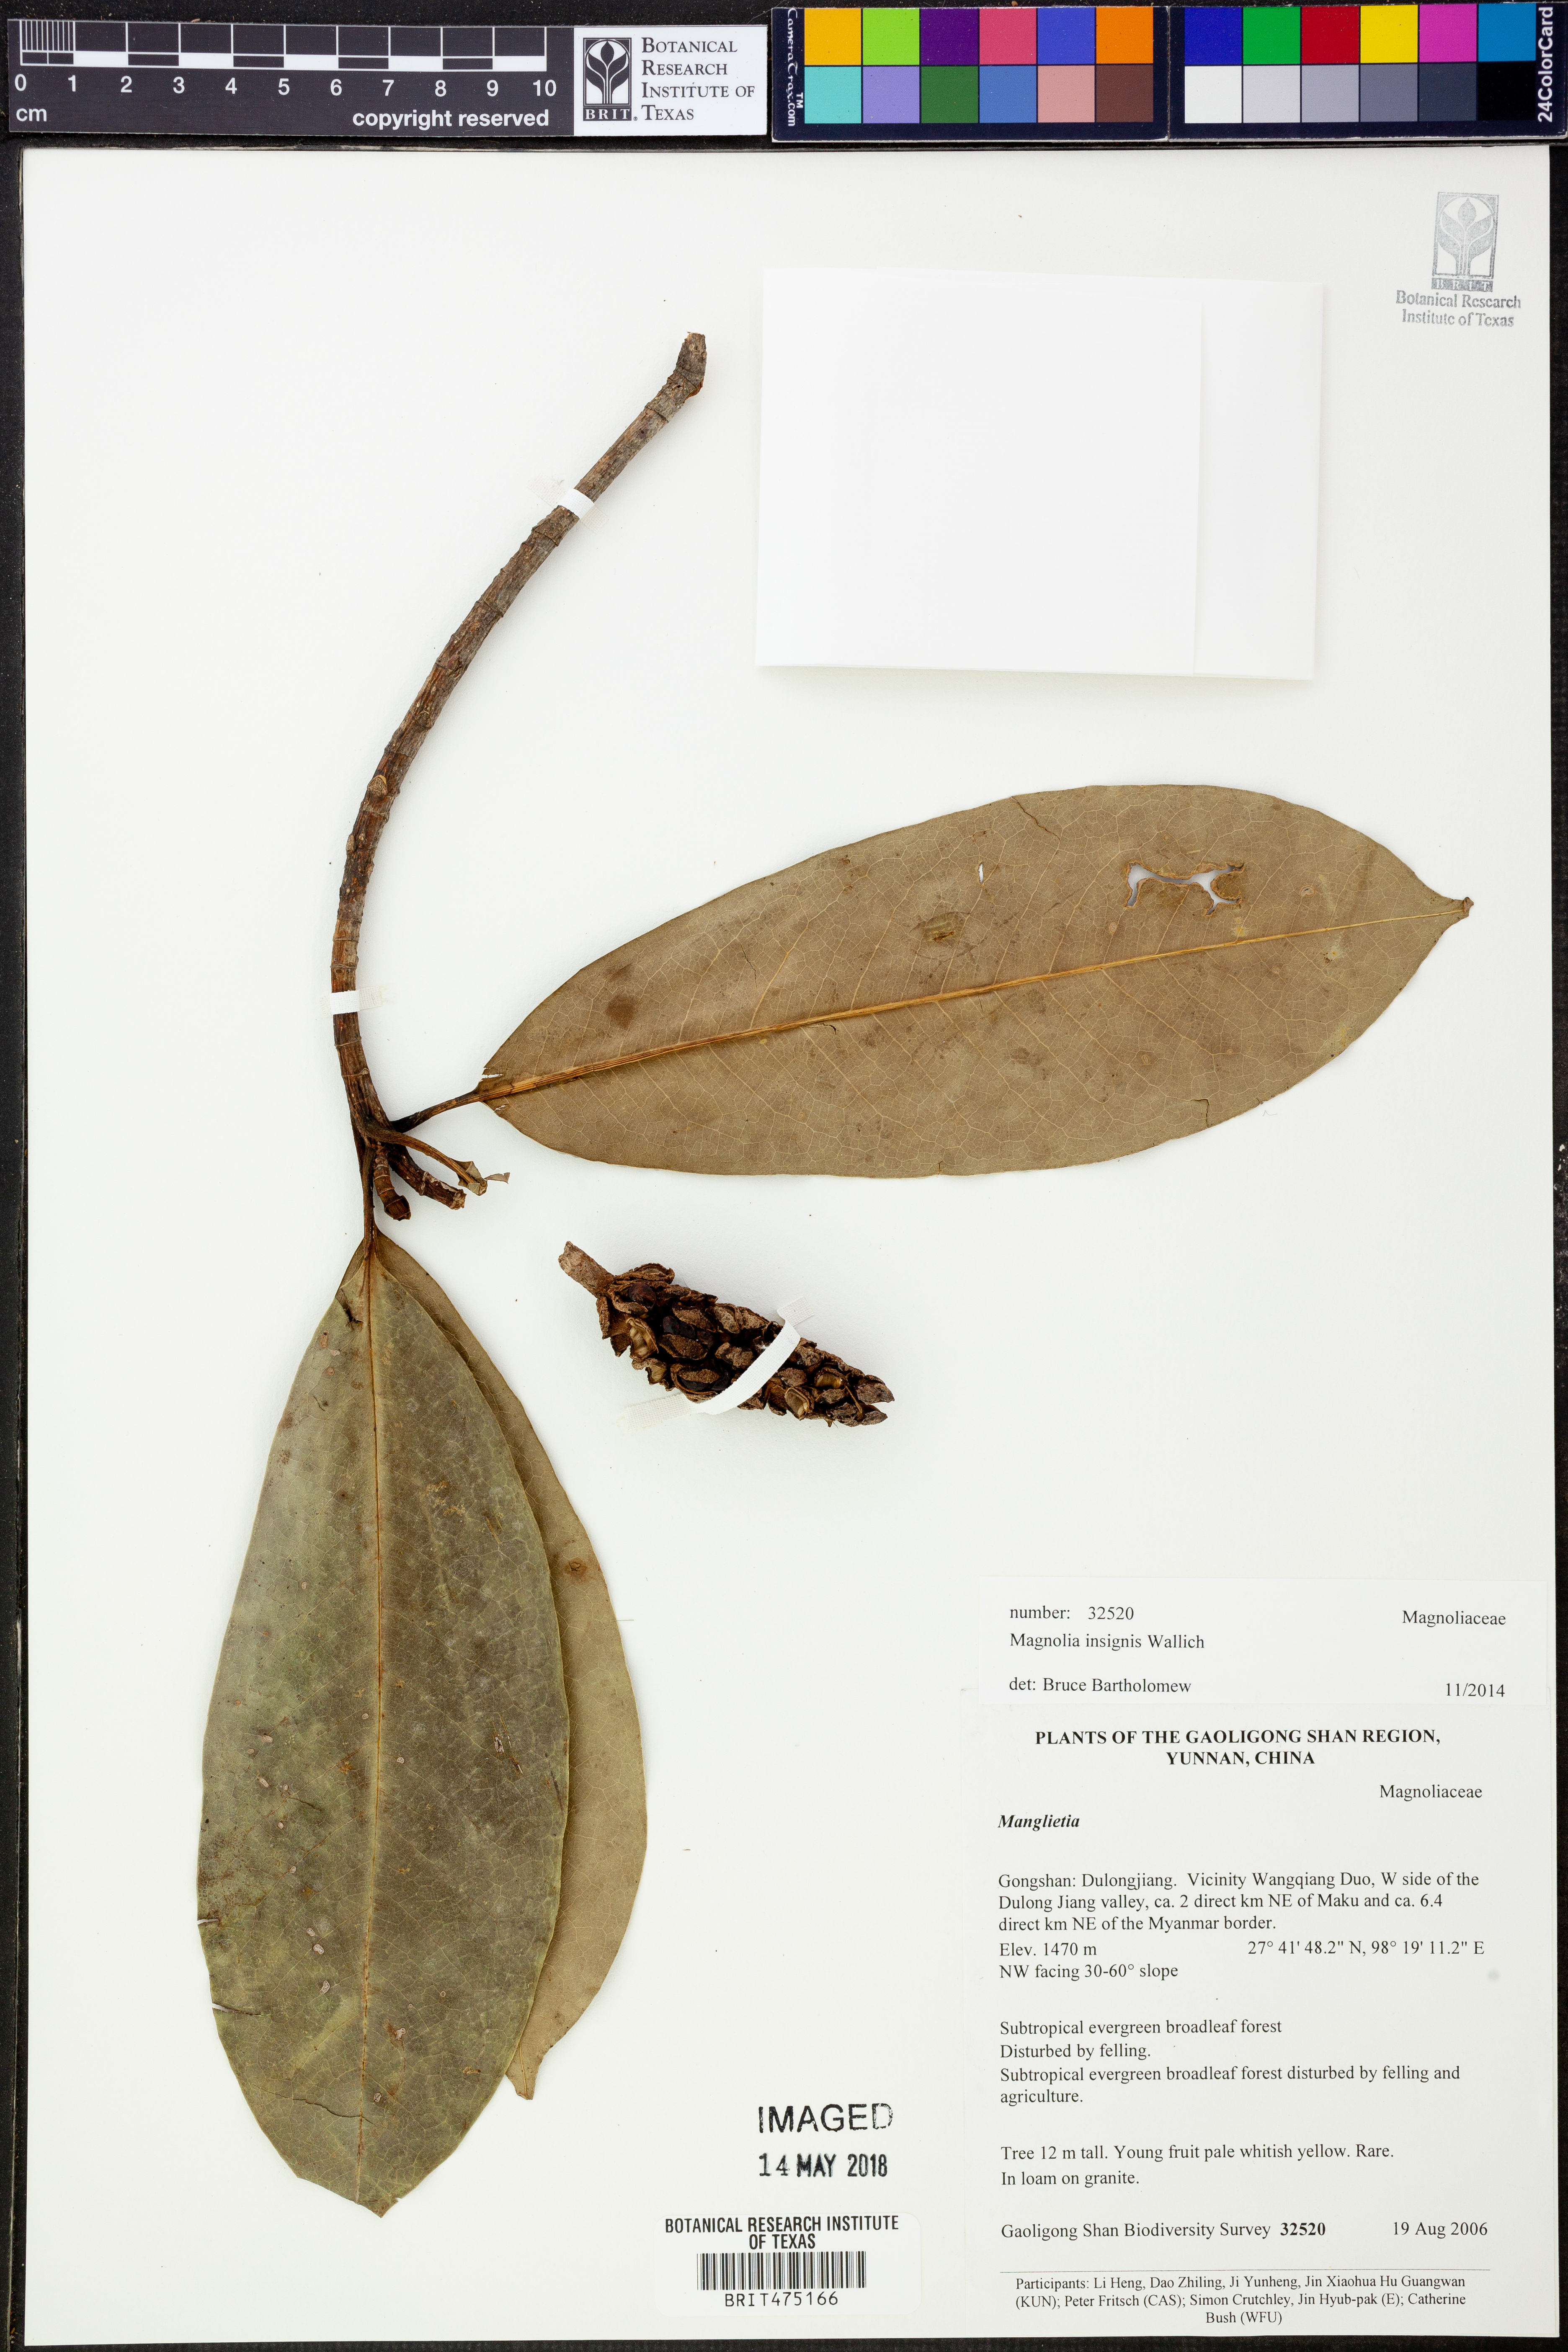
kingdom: Plantae
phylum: Tracheophyta
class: Magnoliopsida
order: Magnoliales
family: Magnoliaceae
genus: Magnolia
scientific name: Magnolia insignis
